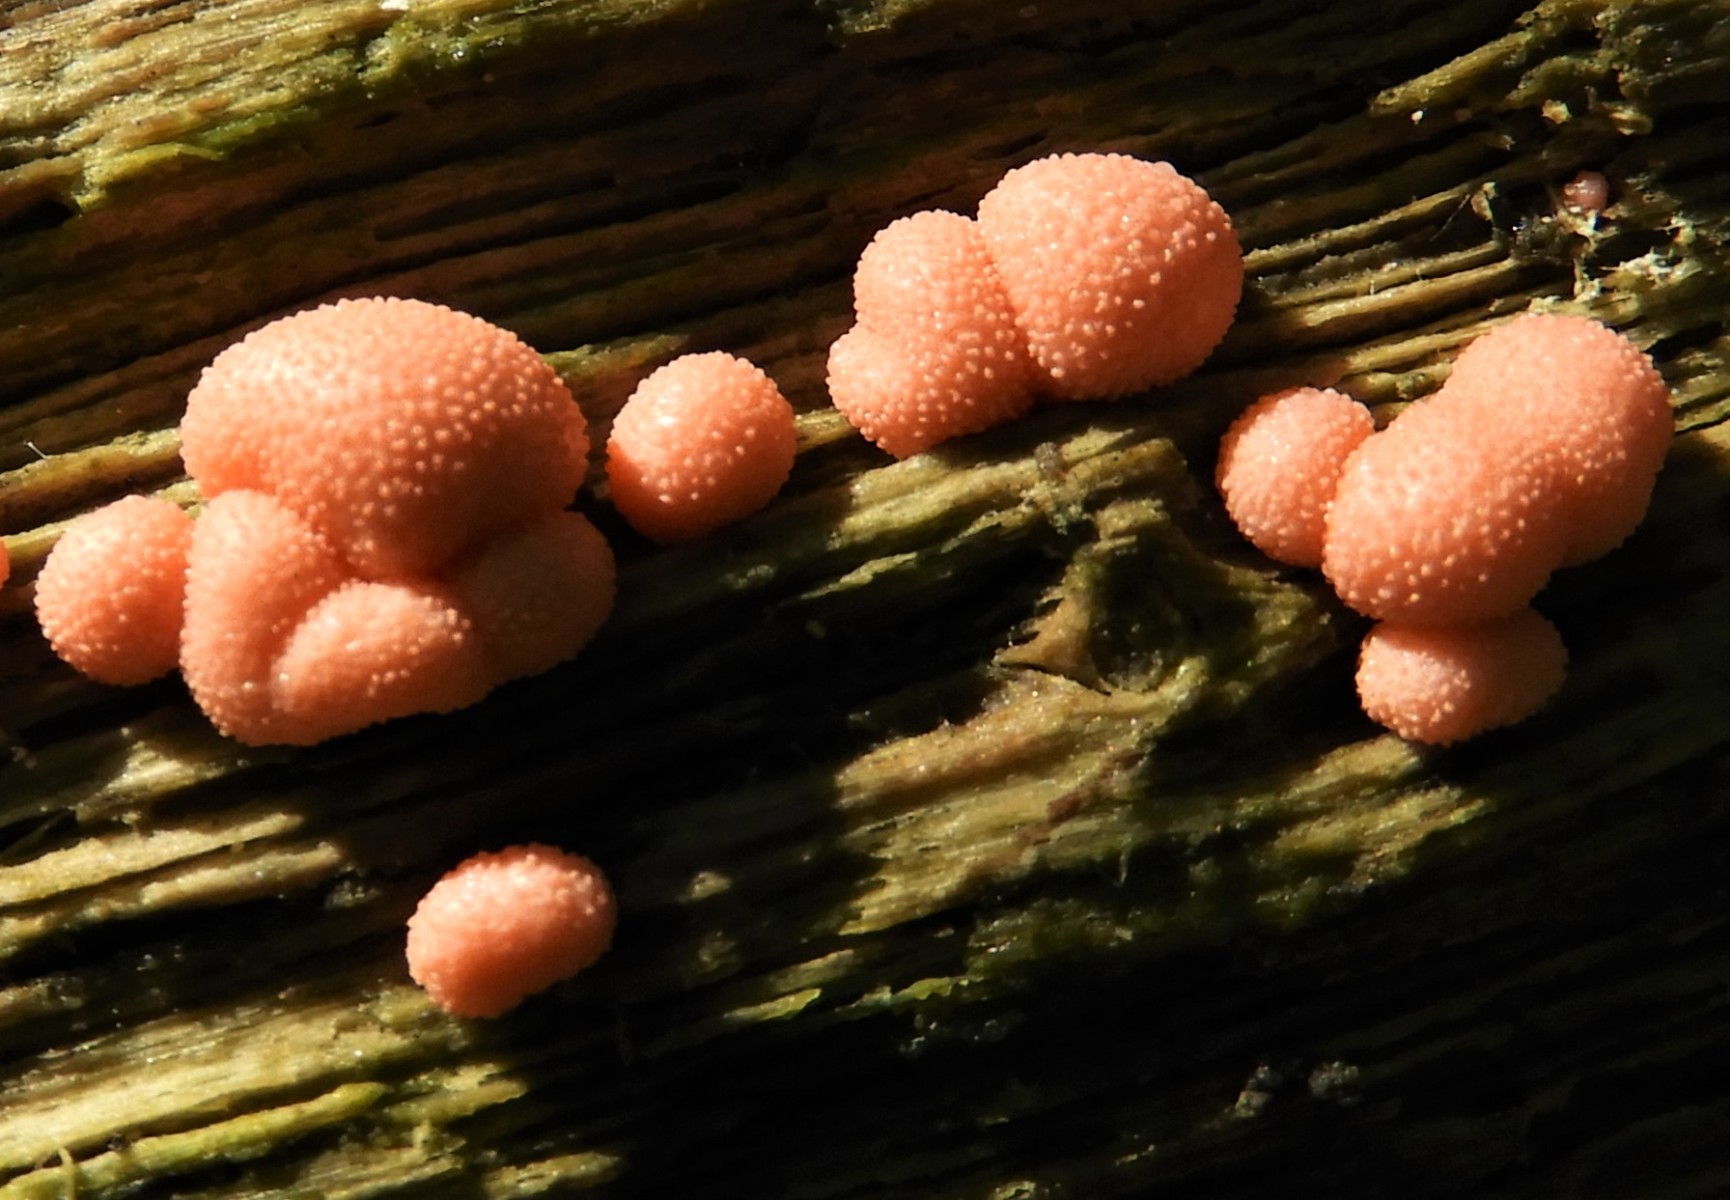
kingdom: Protozoa
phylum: Mycetozoa
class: Myxomycetes
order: Cribrariales
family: Tubiferaceae
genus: Lycogala
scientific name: Lycogala epidendrum
